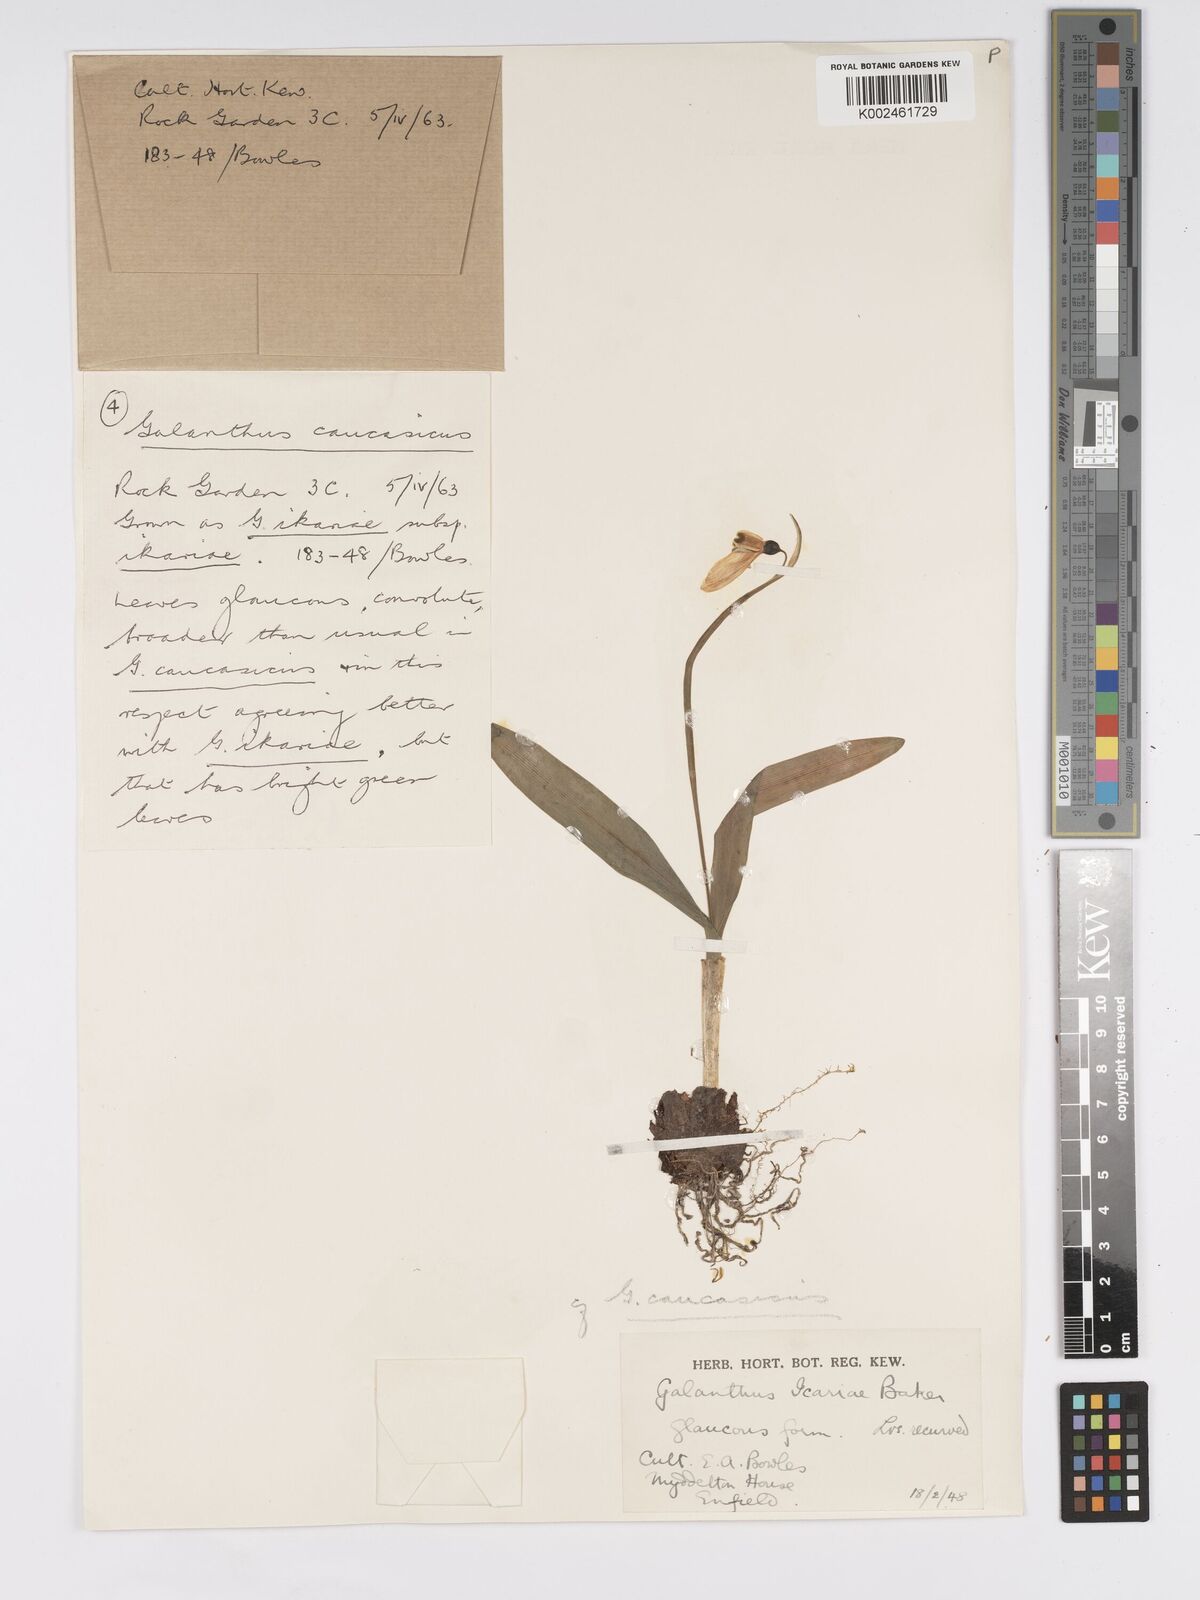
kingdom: Plantae
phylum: Tracheophyta
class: Liliopsida
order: Asparagales
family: Amaryllidaceae
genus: Galanthus
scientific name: Galanthus alpinus
